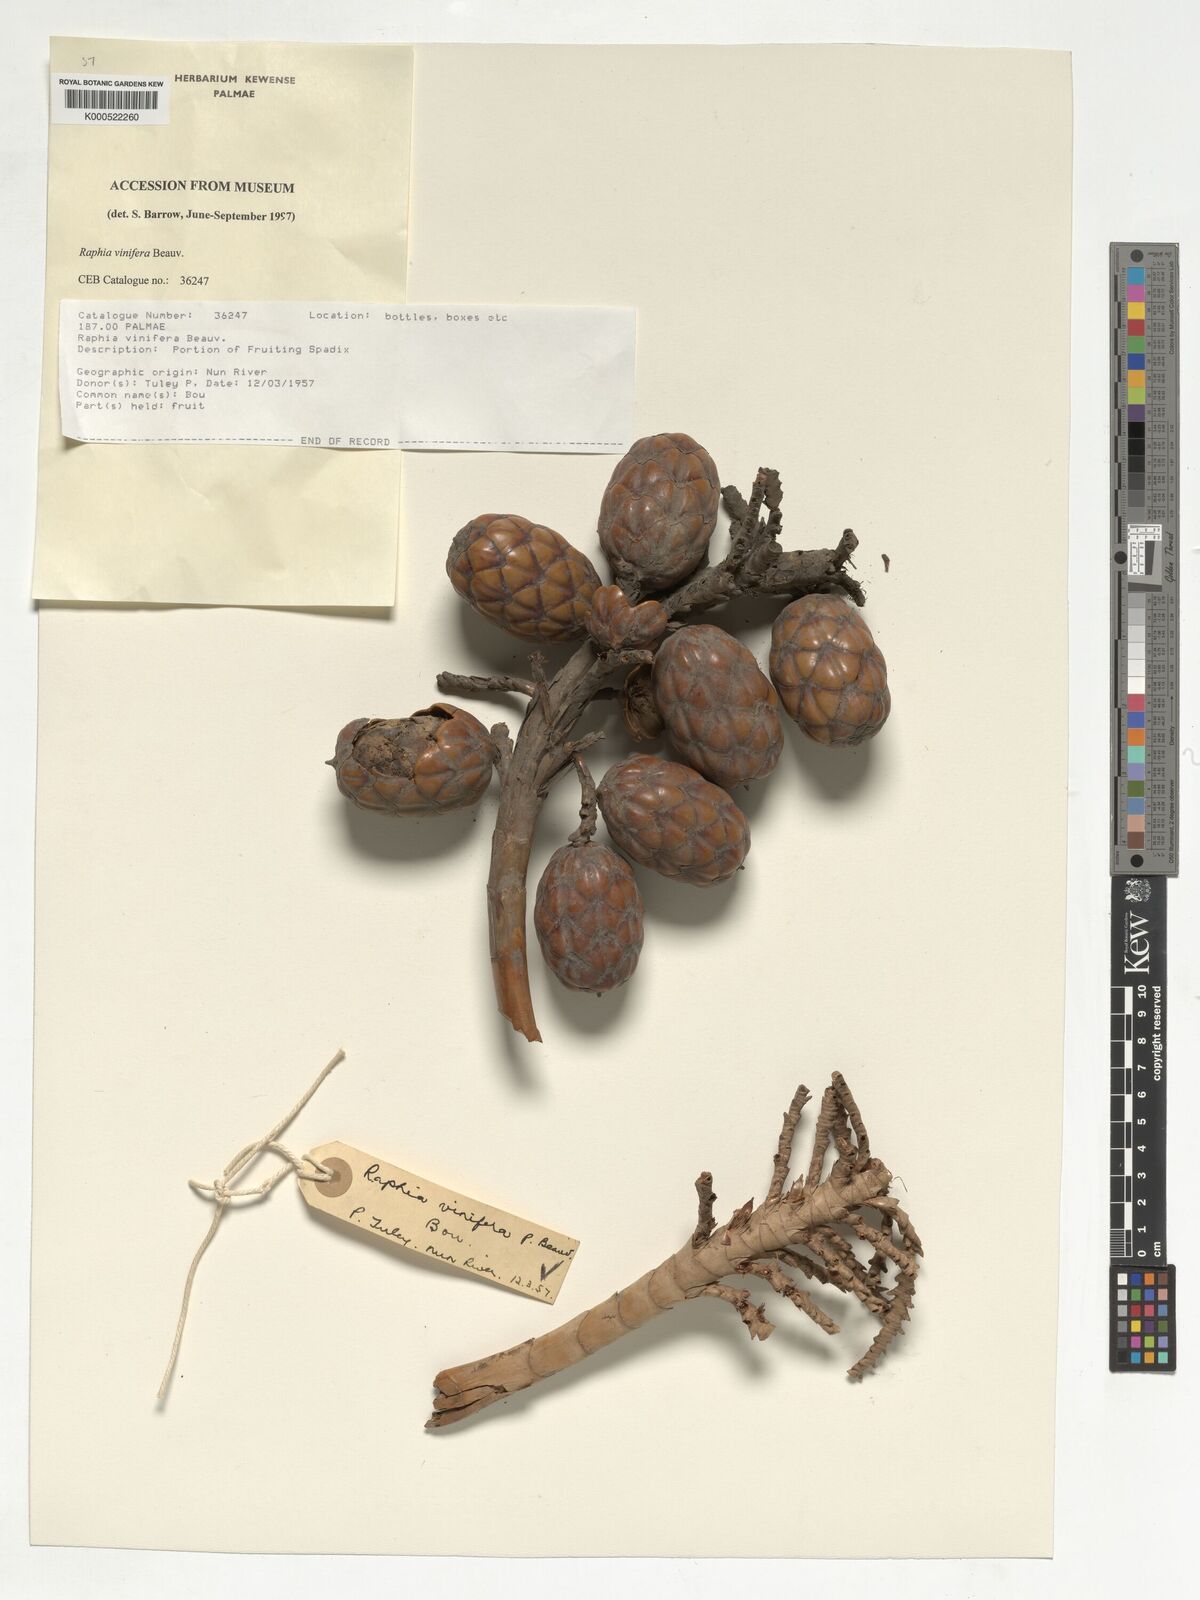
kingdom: Plantae
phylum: Tracheophyta
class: Liliopsida
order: Arecales
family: Arecaceae
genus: Raphia
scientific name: Raphia vinifera
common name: Raphia palm
